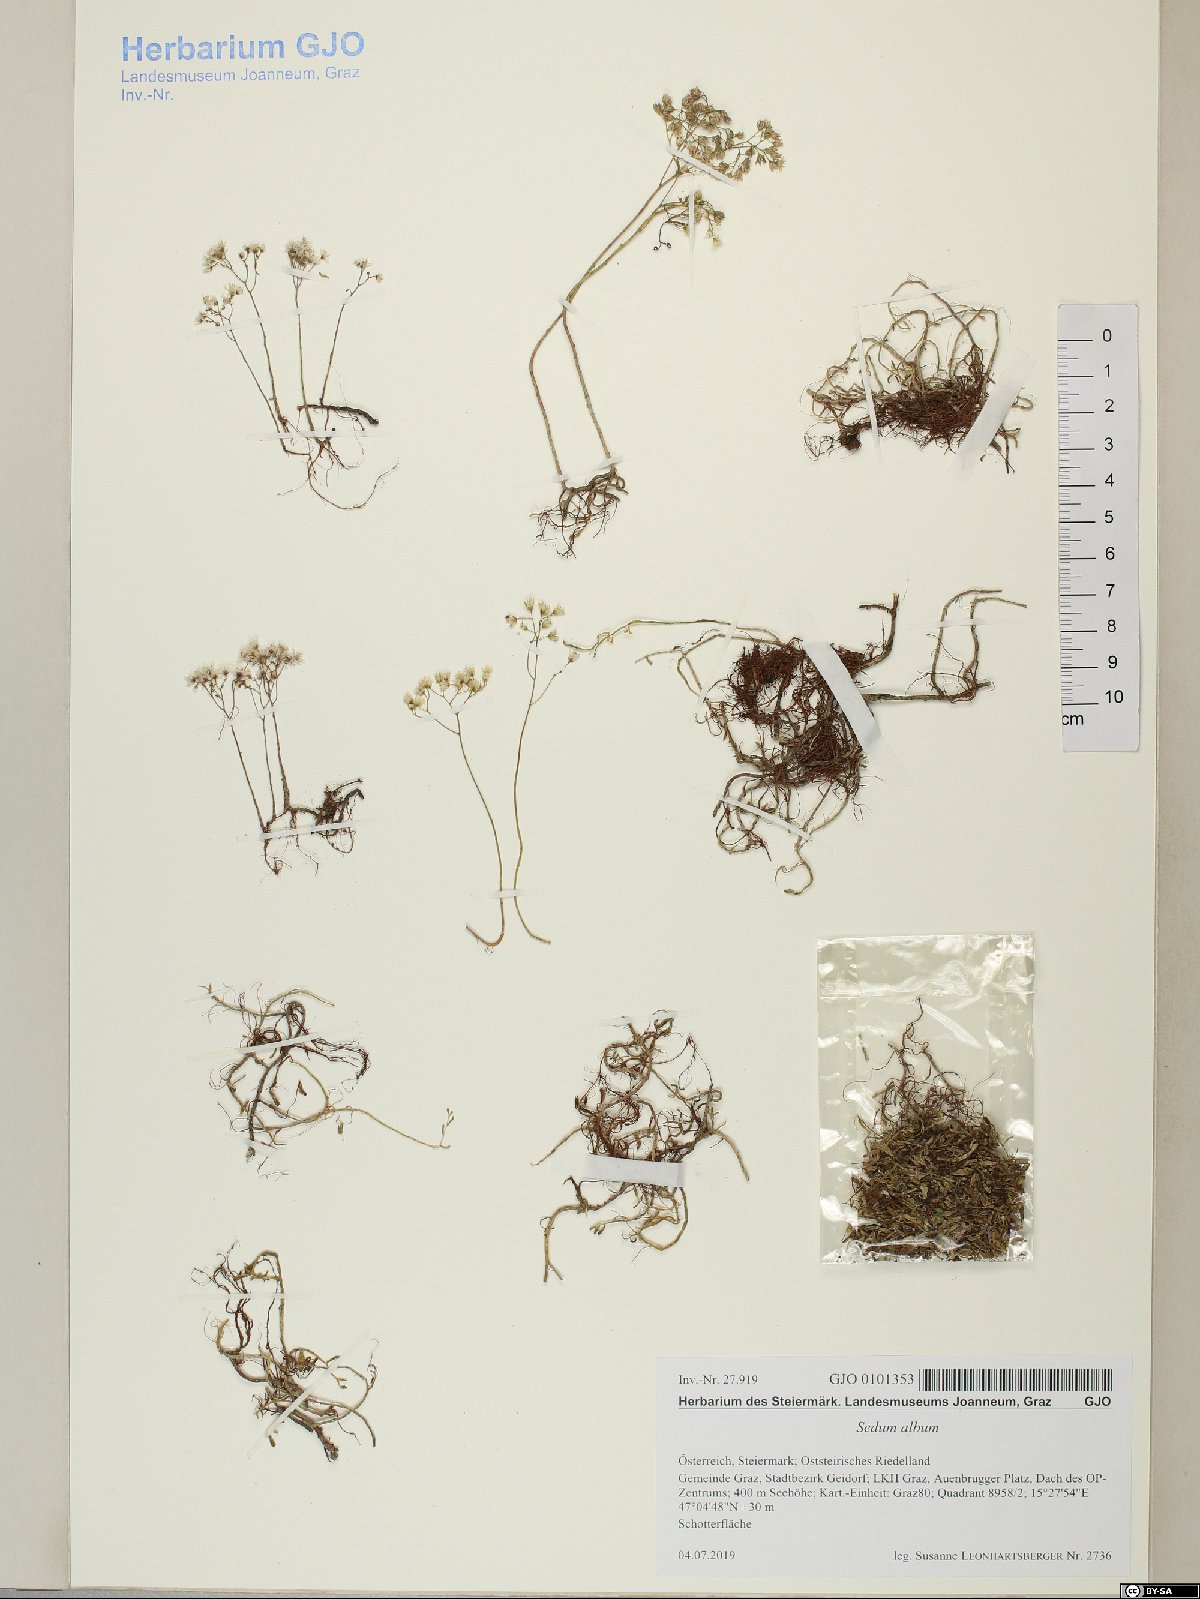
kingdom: Plantae
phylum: Tracheophyta
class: Magnoliopsida
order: Saxifragales
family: Crassulaceae
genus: Sedum
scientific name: Sedum album
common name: White stonecrop
